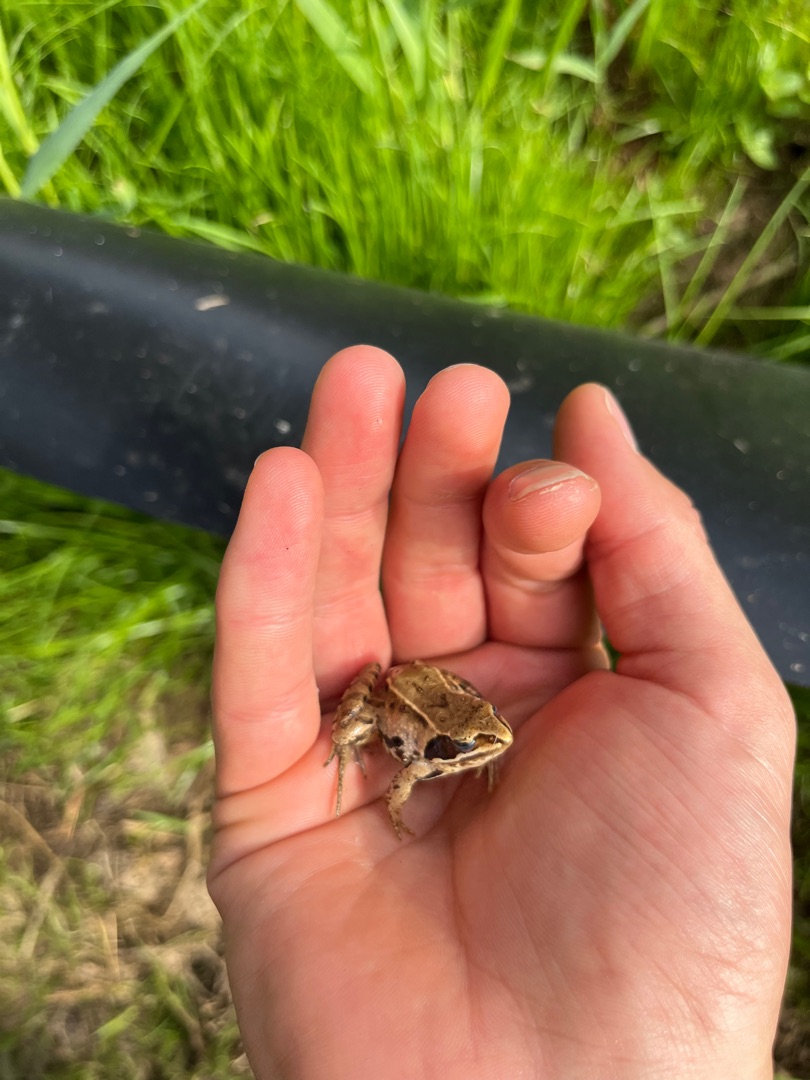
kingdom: Animalia
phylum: Chordata
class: Amphibia
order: Anura
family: Ranidae
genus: Rana
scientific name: Rana arvalis
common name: Spidssnudet frø
